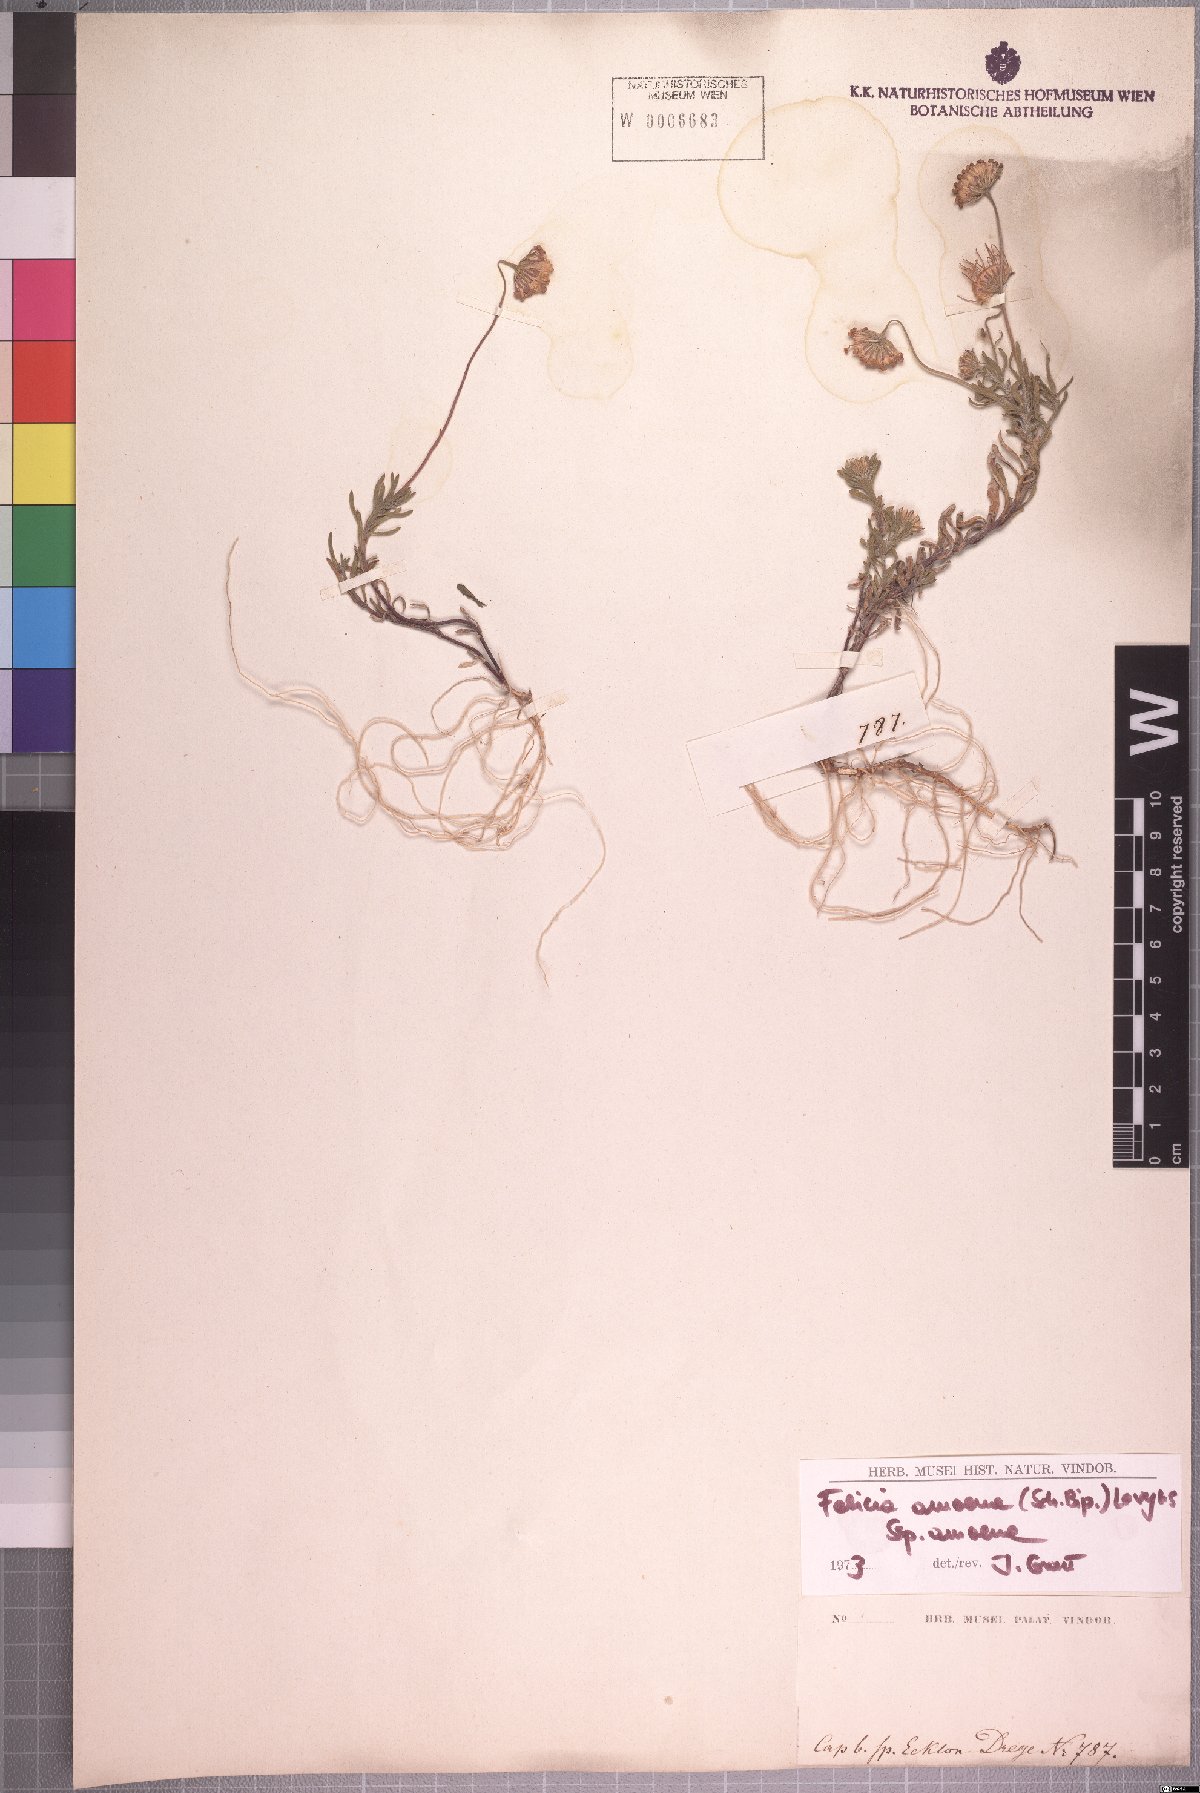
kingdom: Plantae
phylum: Tracheophyta
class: Magnoliopsida
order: Asterales
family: Asteraceae
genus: Felicia
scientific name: Felicia amoena
